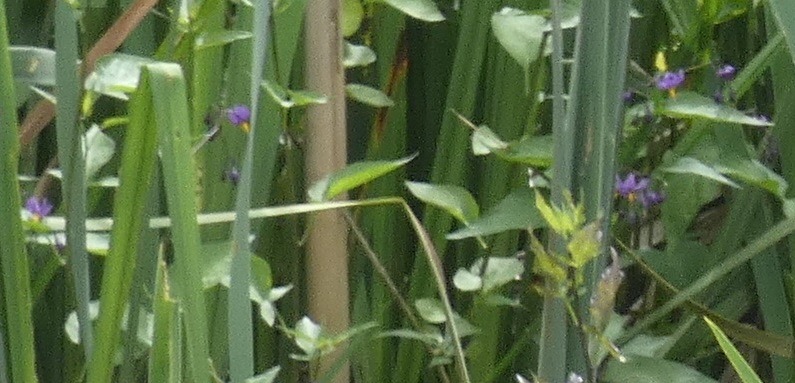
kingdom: Plantae
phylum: Tracheophyta
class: Magnoliopsida
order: Solanales
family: Solanaceae
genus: Solanum
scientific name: Solanum dulcamara
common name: Bittersød natskygge
